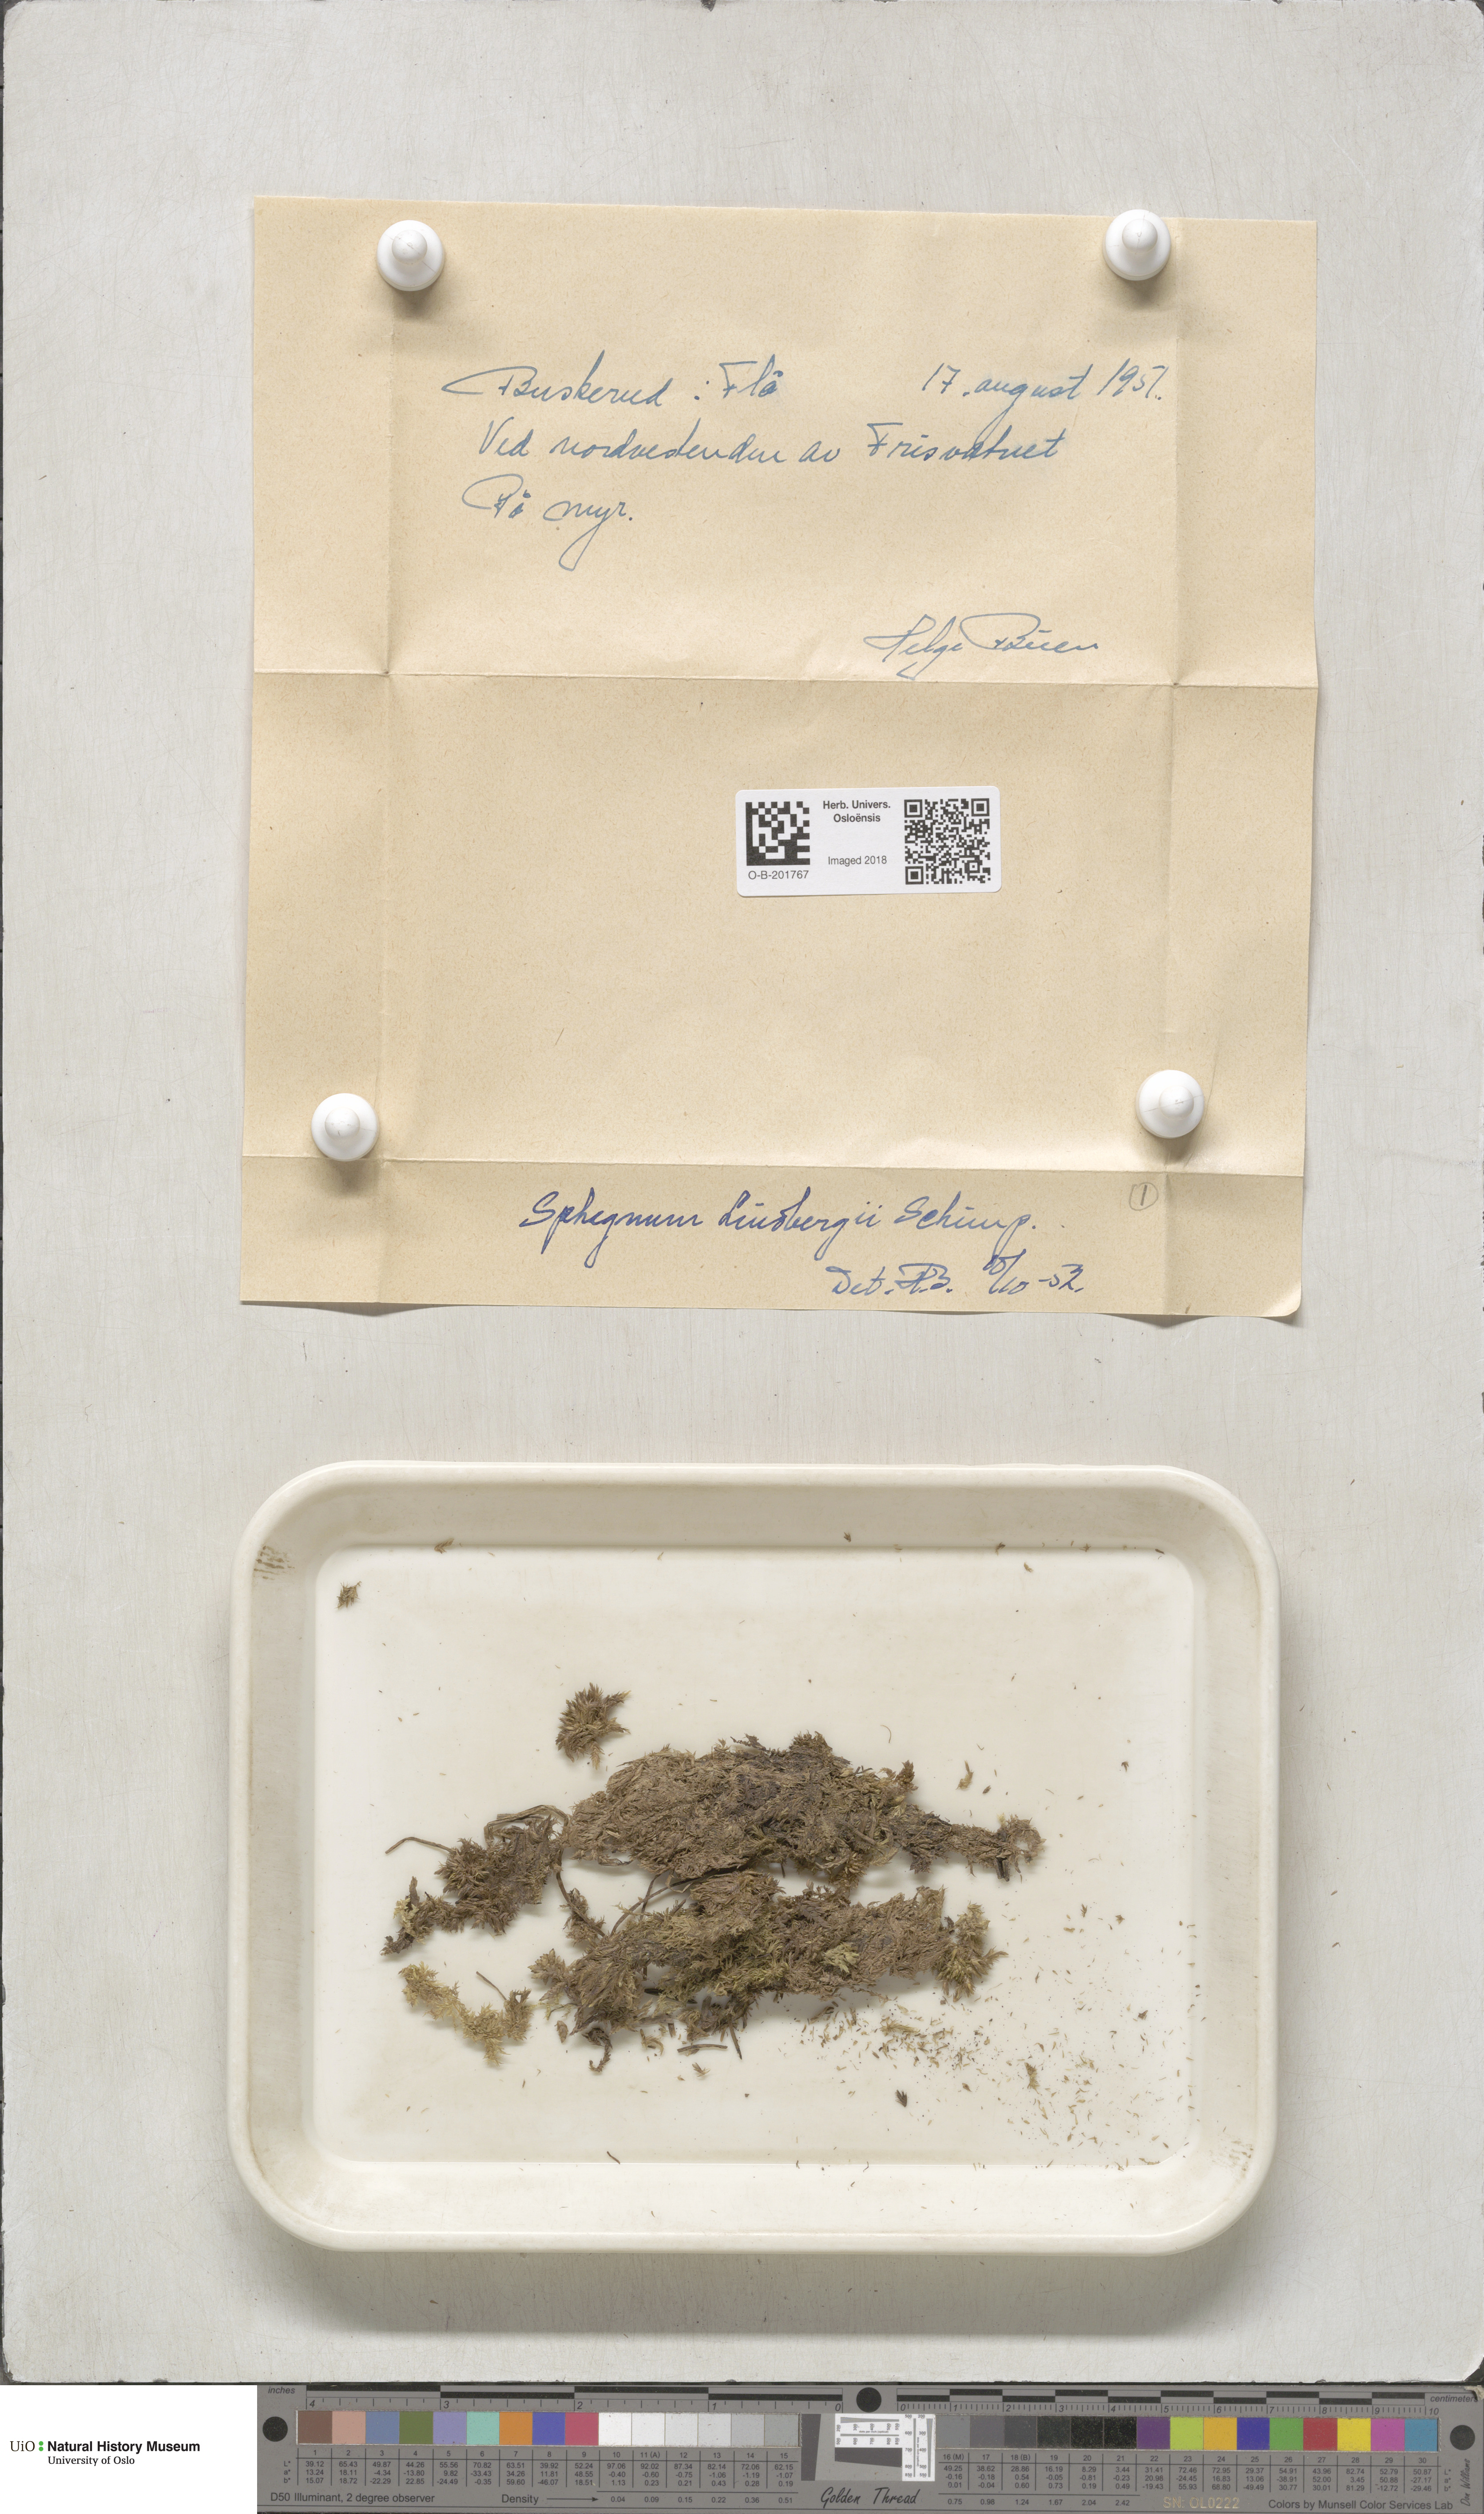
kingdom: Plantae
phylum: Bryophyta
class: Sphagnopsida
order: Sphagnales
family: Sphagnaceae
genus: Sphagnum
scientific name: Sphagnum lindbergii
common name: Lindberg's peat moss
